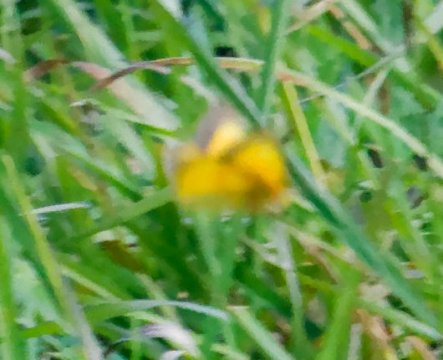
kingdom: Animalia
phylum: Arthropoda
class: Insecta
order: Lepidoptera
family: Pieridae
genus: Colias
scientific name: Colias eurytheme
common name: Orange Sulphur
